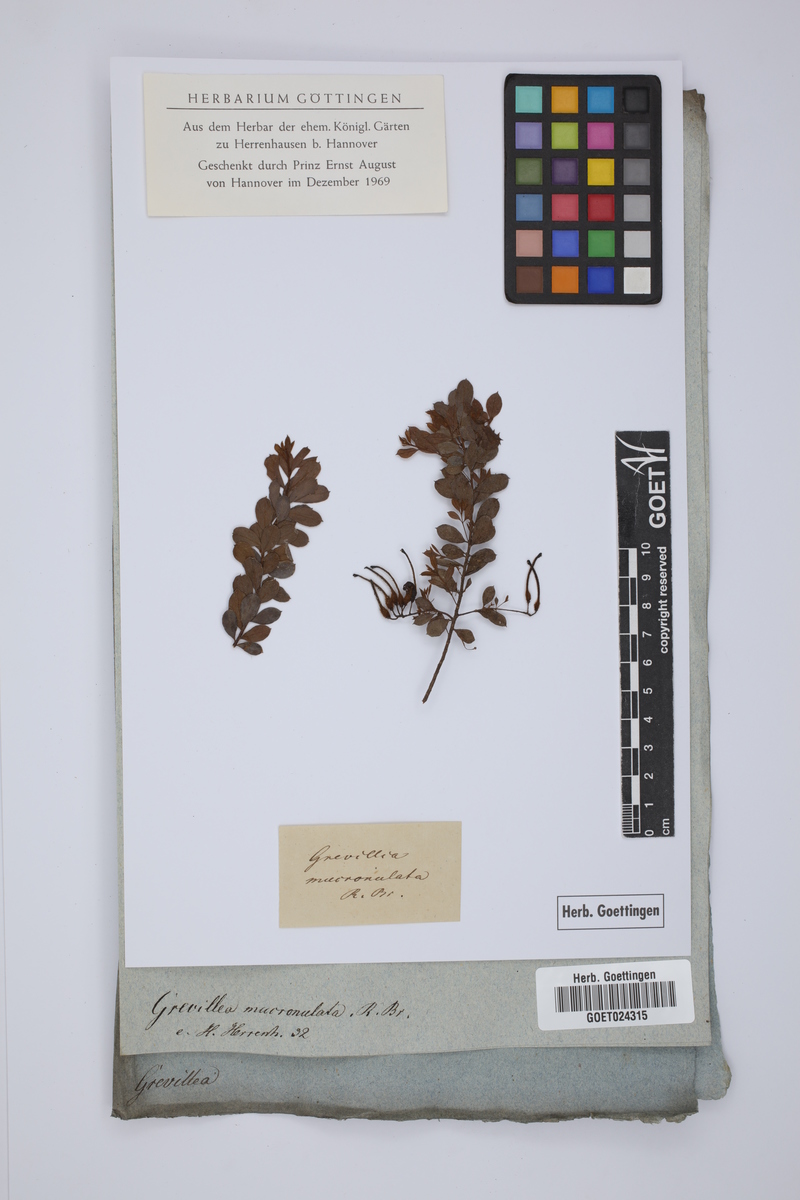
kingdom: Plantae
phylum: Tracheophyta
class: Magnoliopsida
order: Proteales
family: Proteaceae
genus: Grevillea
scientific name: Grevillea mucronulata
